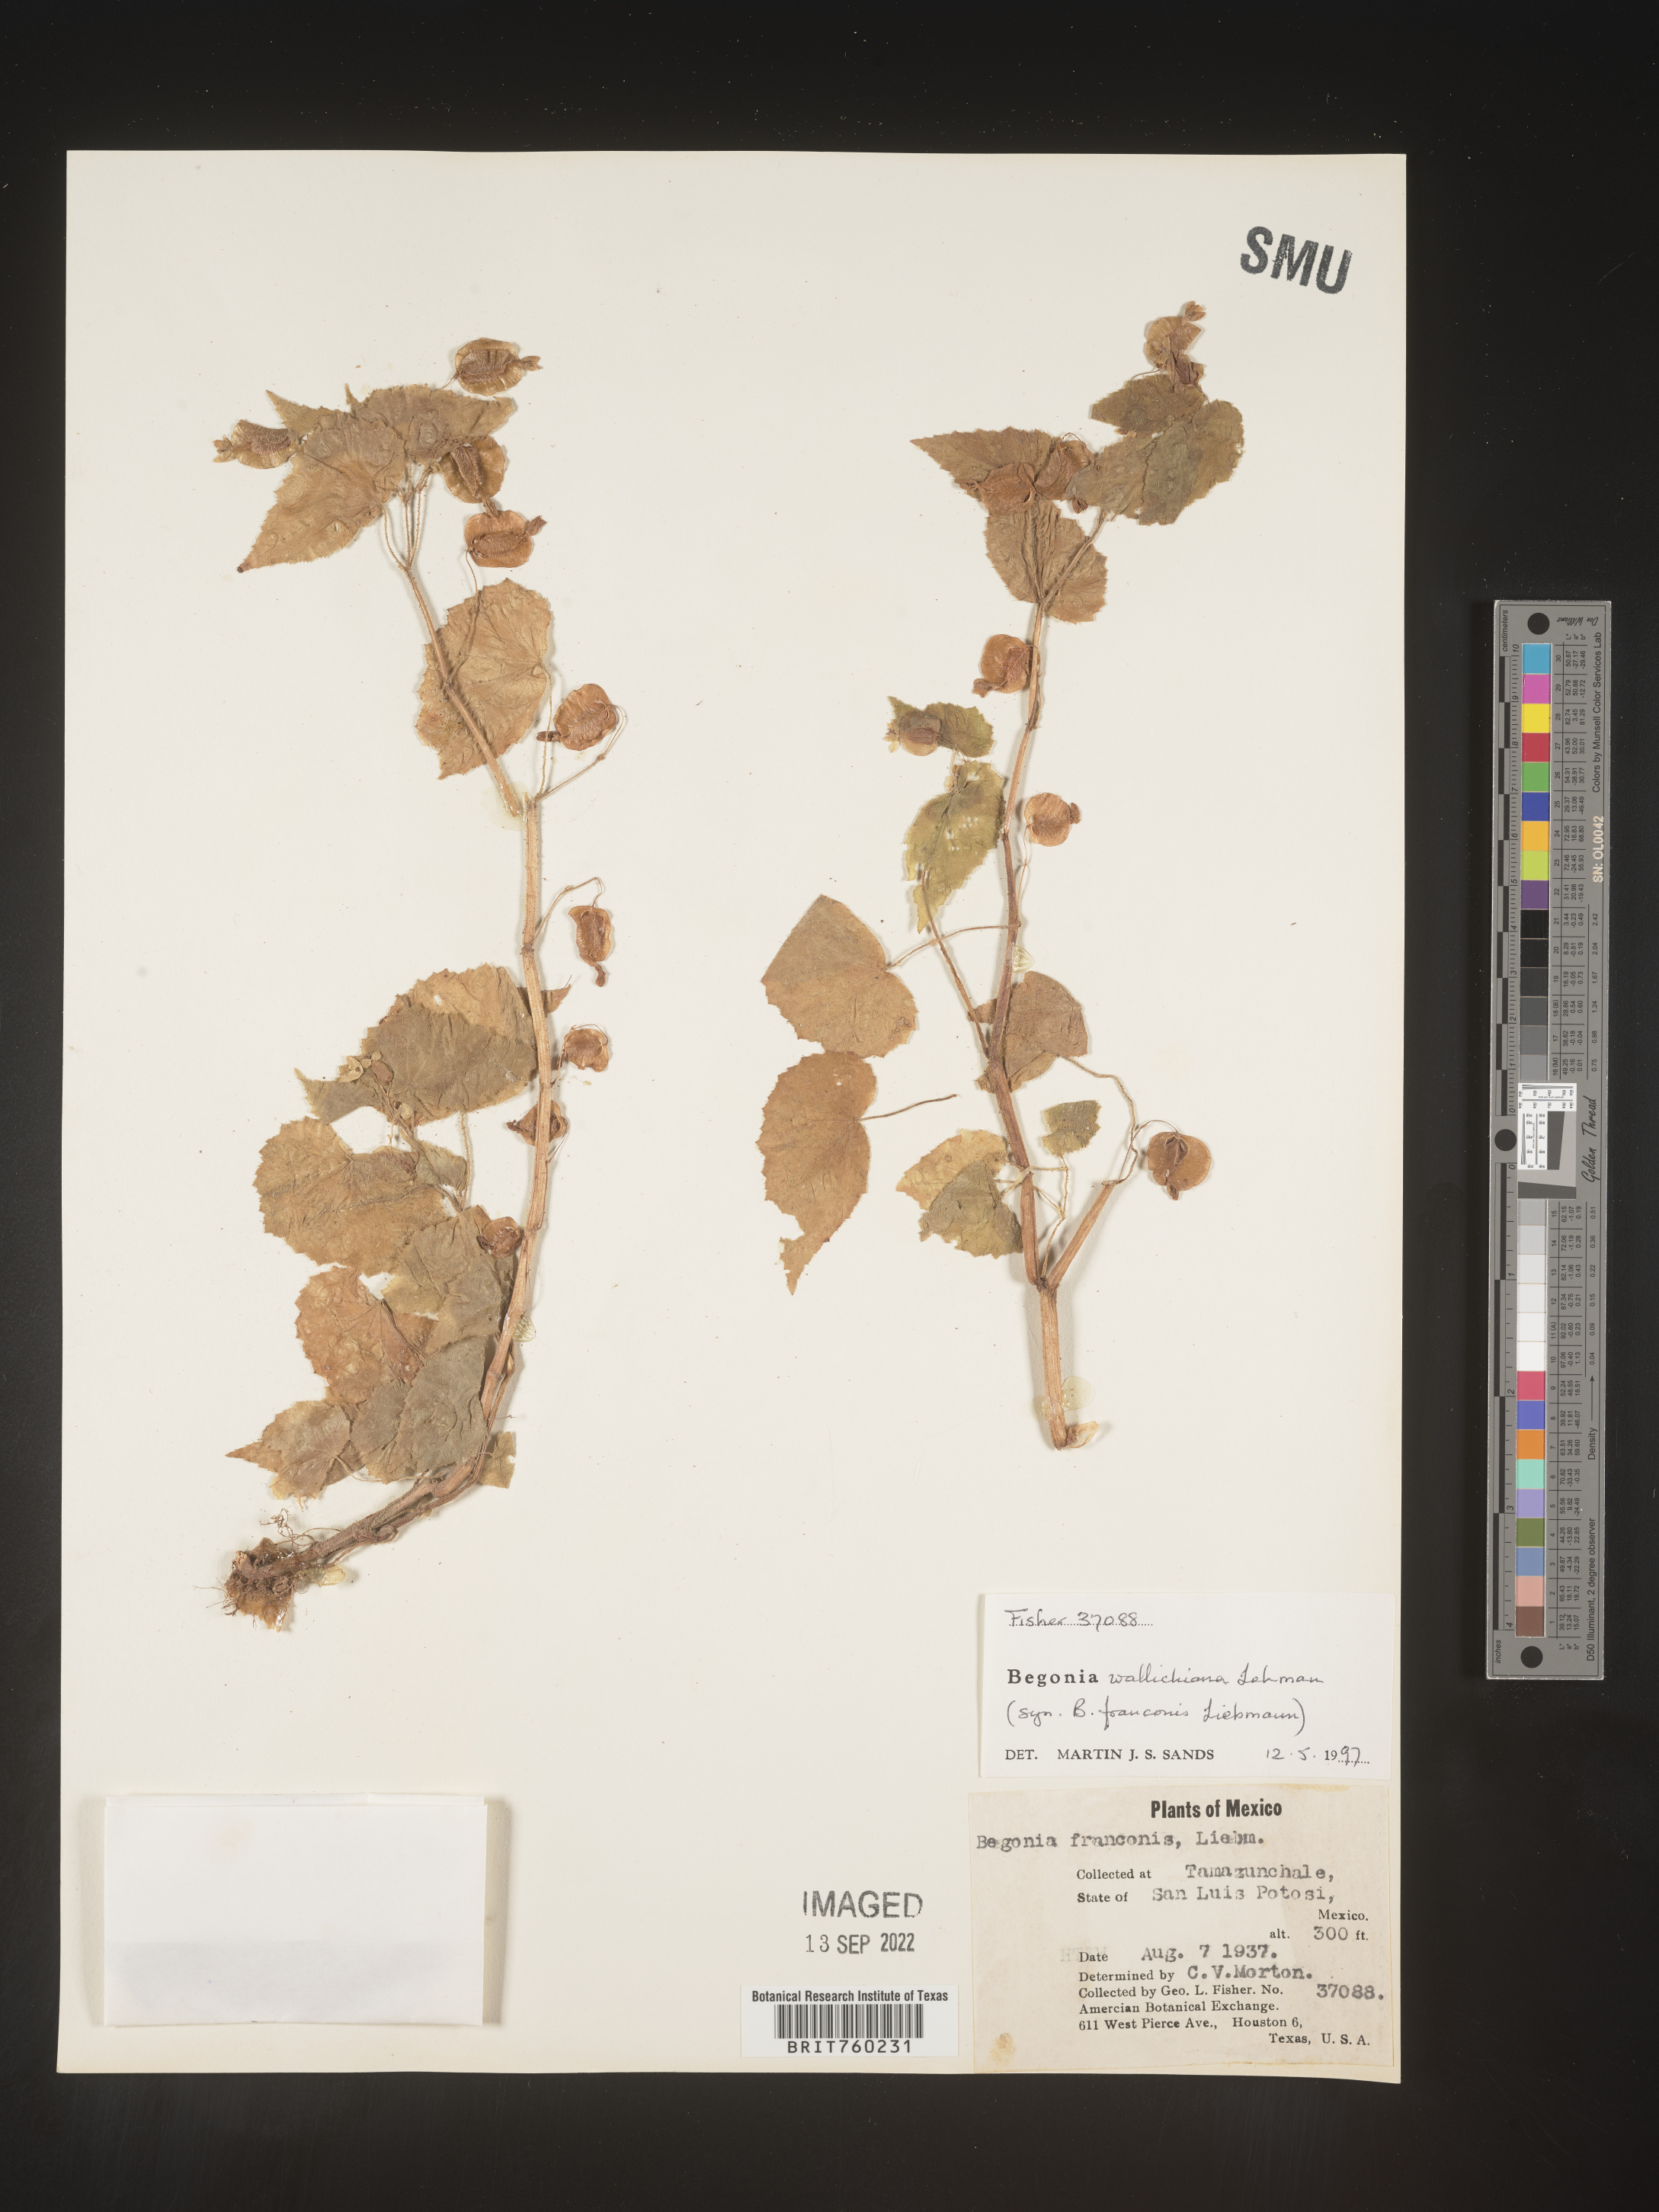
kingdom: Plantae
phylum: Tracheophyta
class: Magnoliopsida
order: Cucurbitales
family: Begoniaceae
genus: Begonia
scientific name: Begonia
